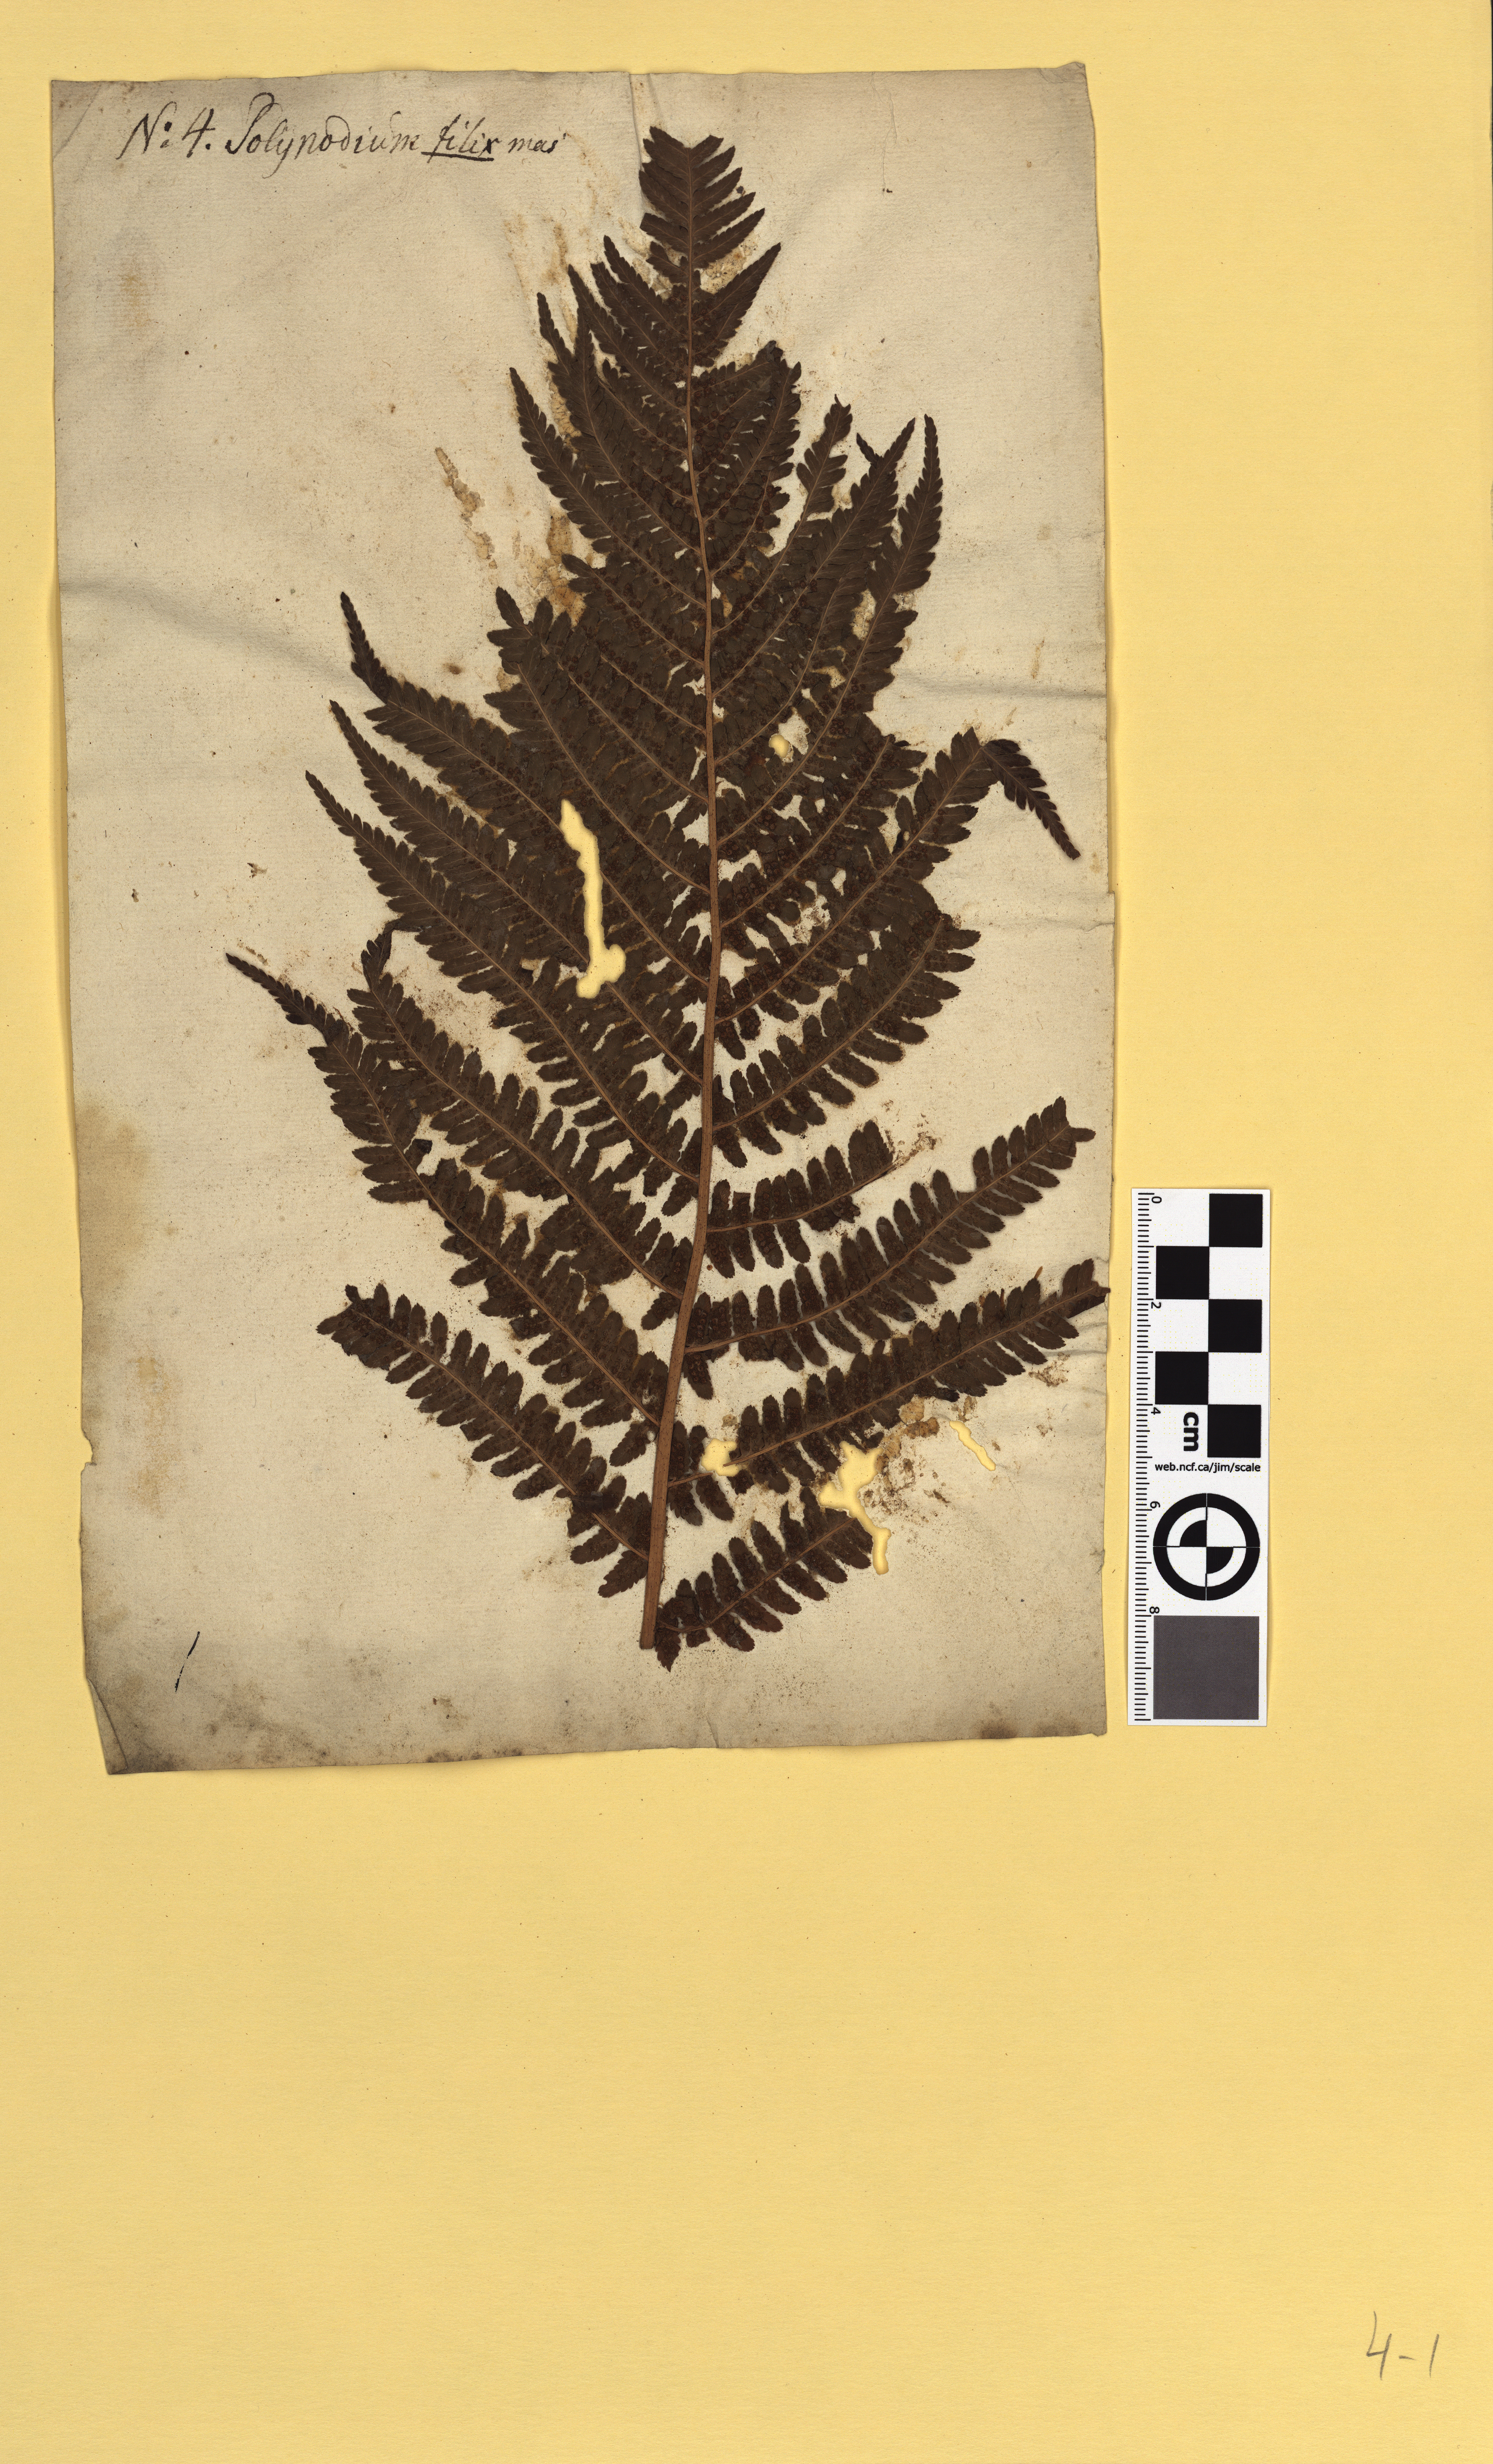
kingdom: Plantae
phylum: Tracheophyta
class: Polypodiopsida
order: Polypodiales
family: Dryopteridaceae
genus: Dryopteris
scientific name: Dryopteris filix-mas
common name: Male fern
